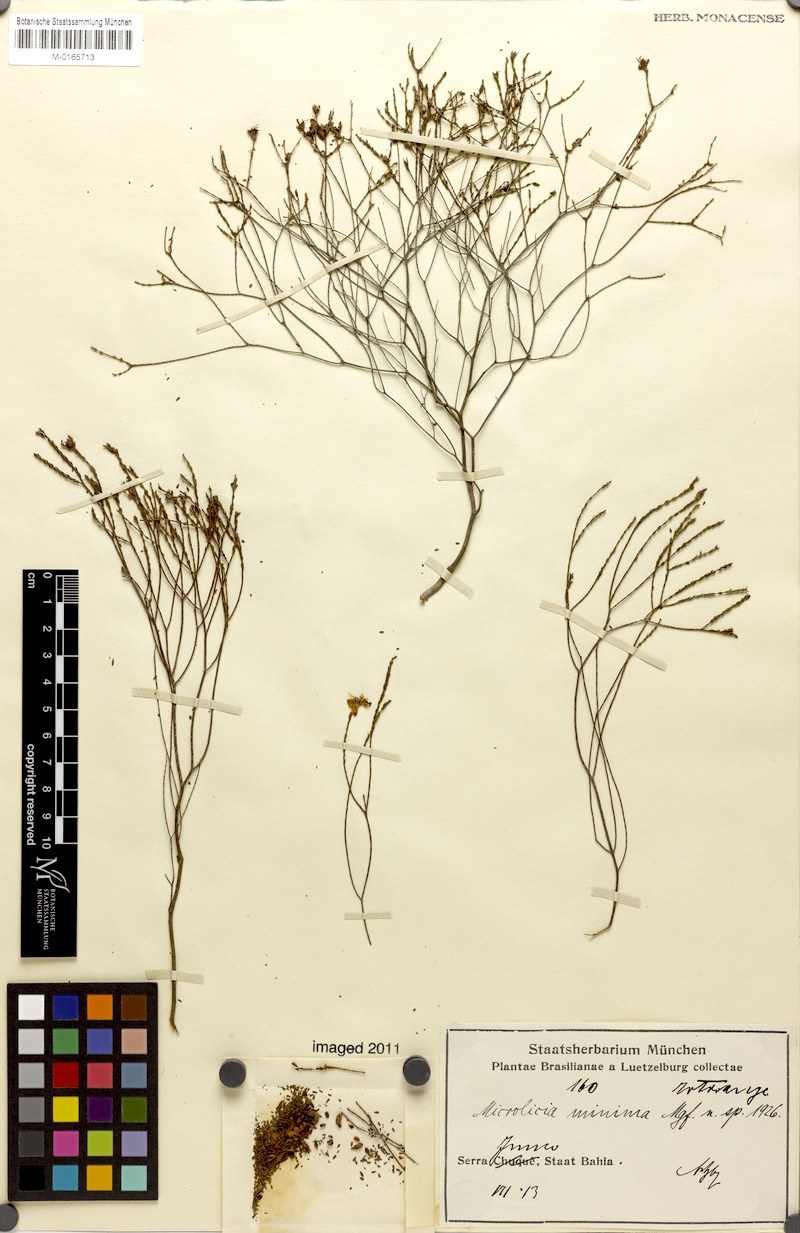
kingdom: Plantae
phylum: Tracheophyta
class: Magnoliopsida
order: Myrtales
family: Melastomataceae
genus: Microlicia
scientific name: Microlicia minima
